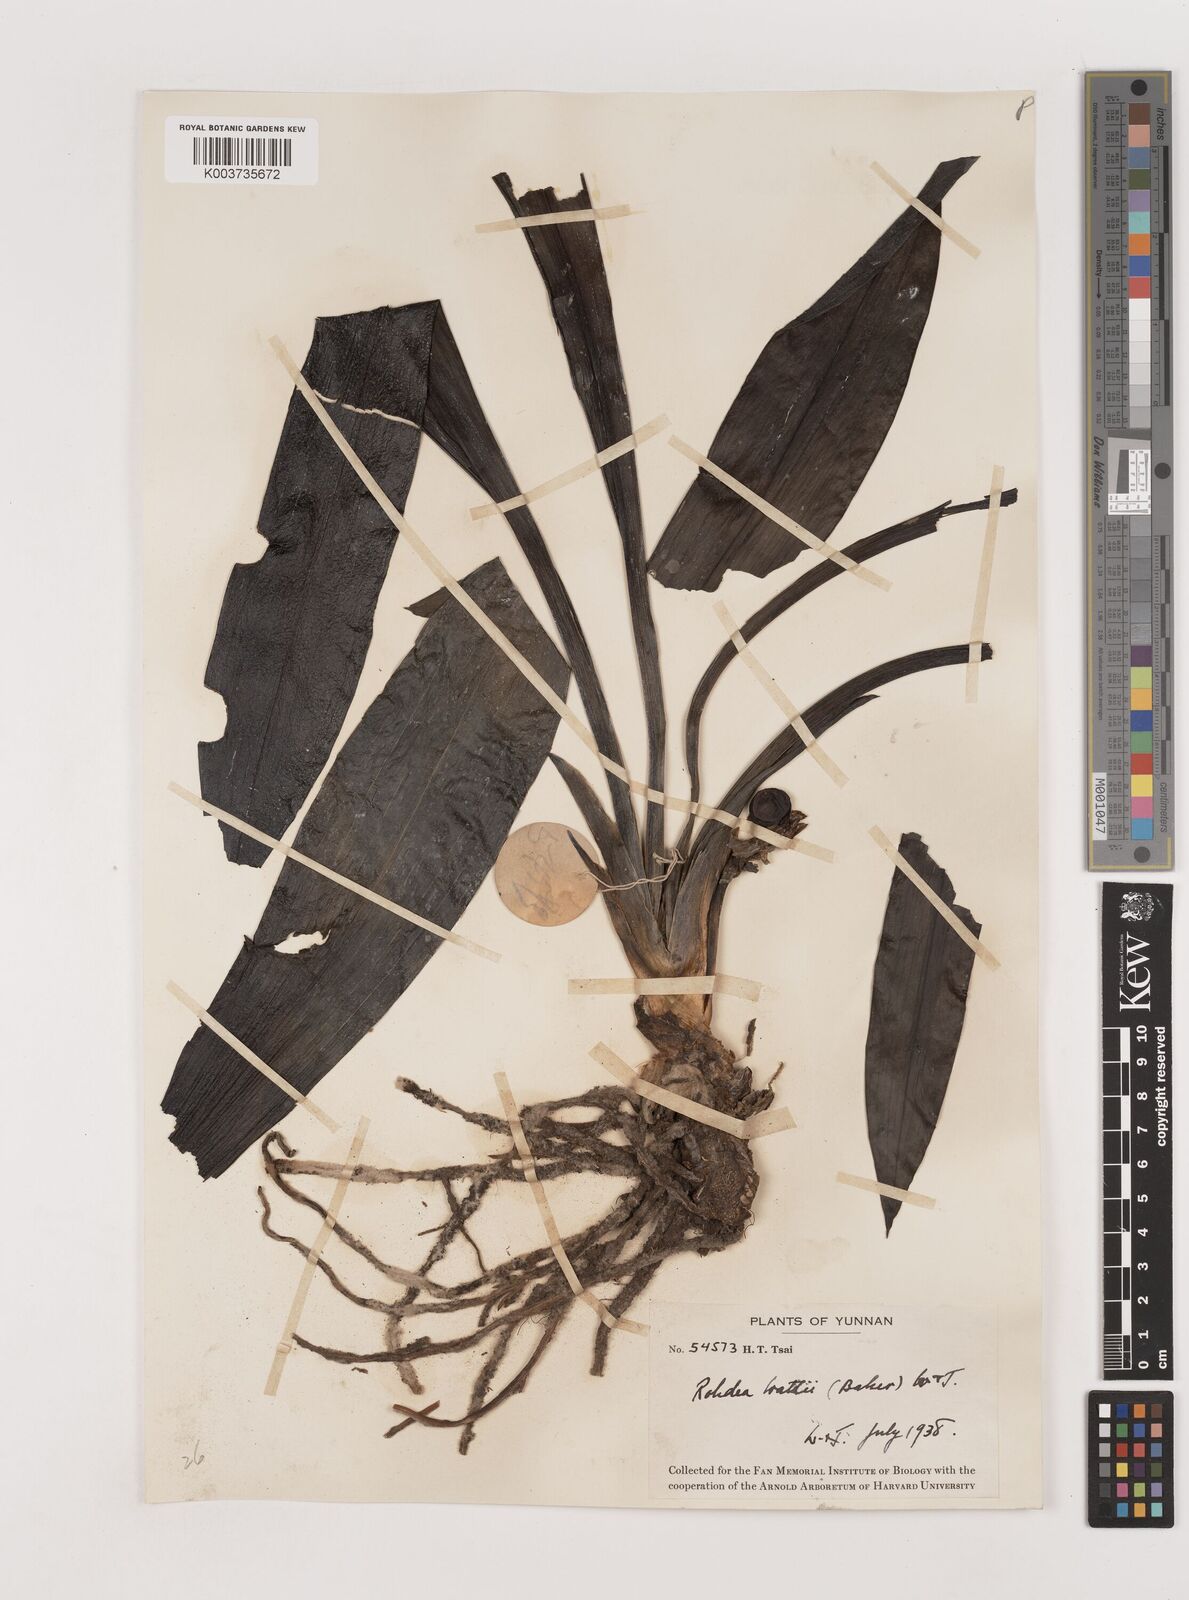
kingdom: Plantae
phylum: Tracheophyta
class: Liliopsida
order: Asparagales
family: Asparagaceae
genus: Rohdea
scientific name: Rohdea wattii
